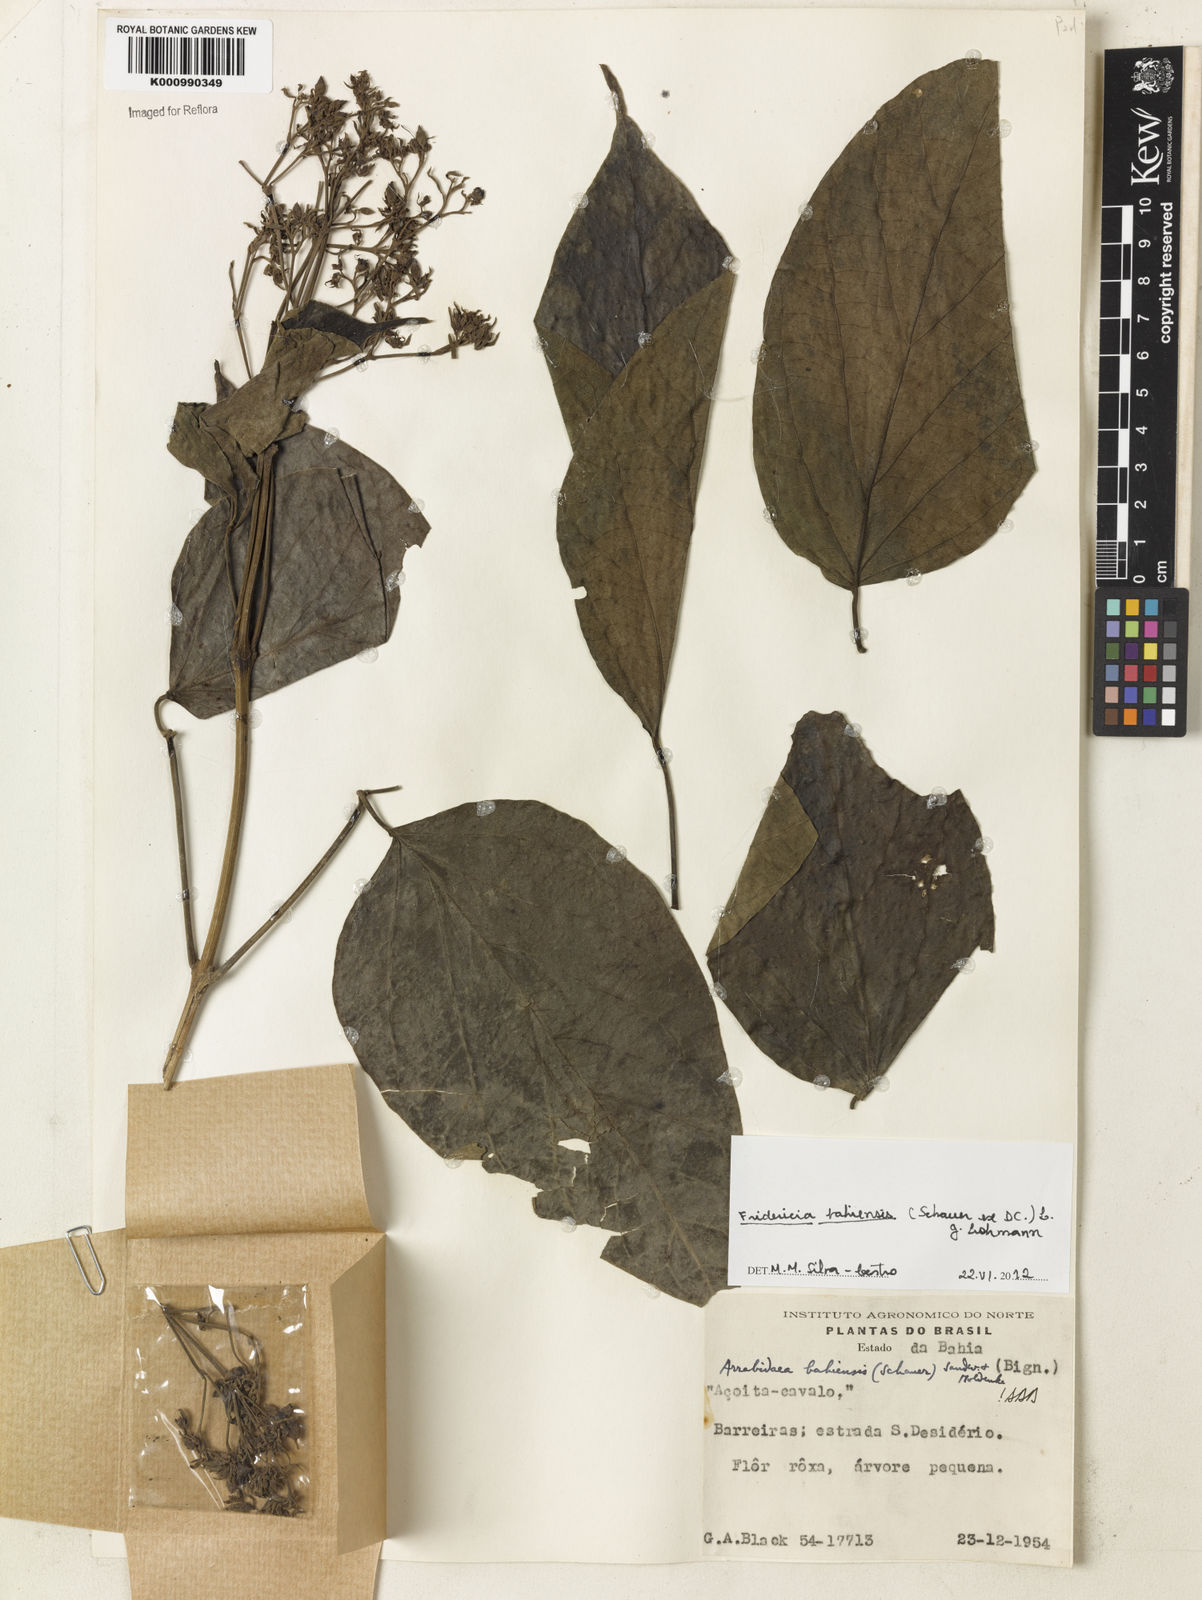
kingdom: Plantae
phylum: Tracheophyta
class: Magnoliopsida
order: Lamiales
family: Bignoniaceae
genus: Fridericia
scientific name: Fridericia bahiensis
